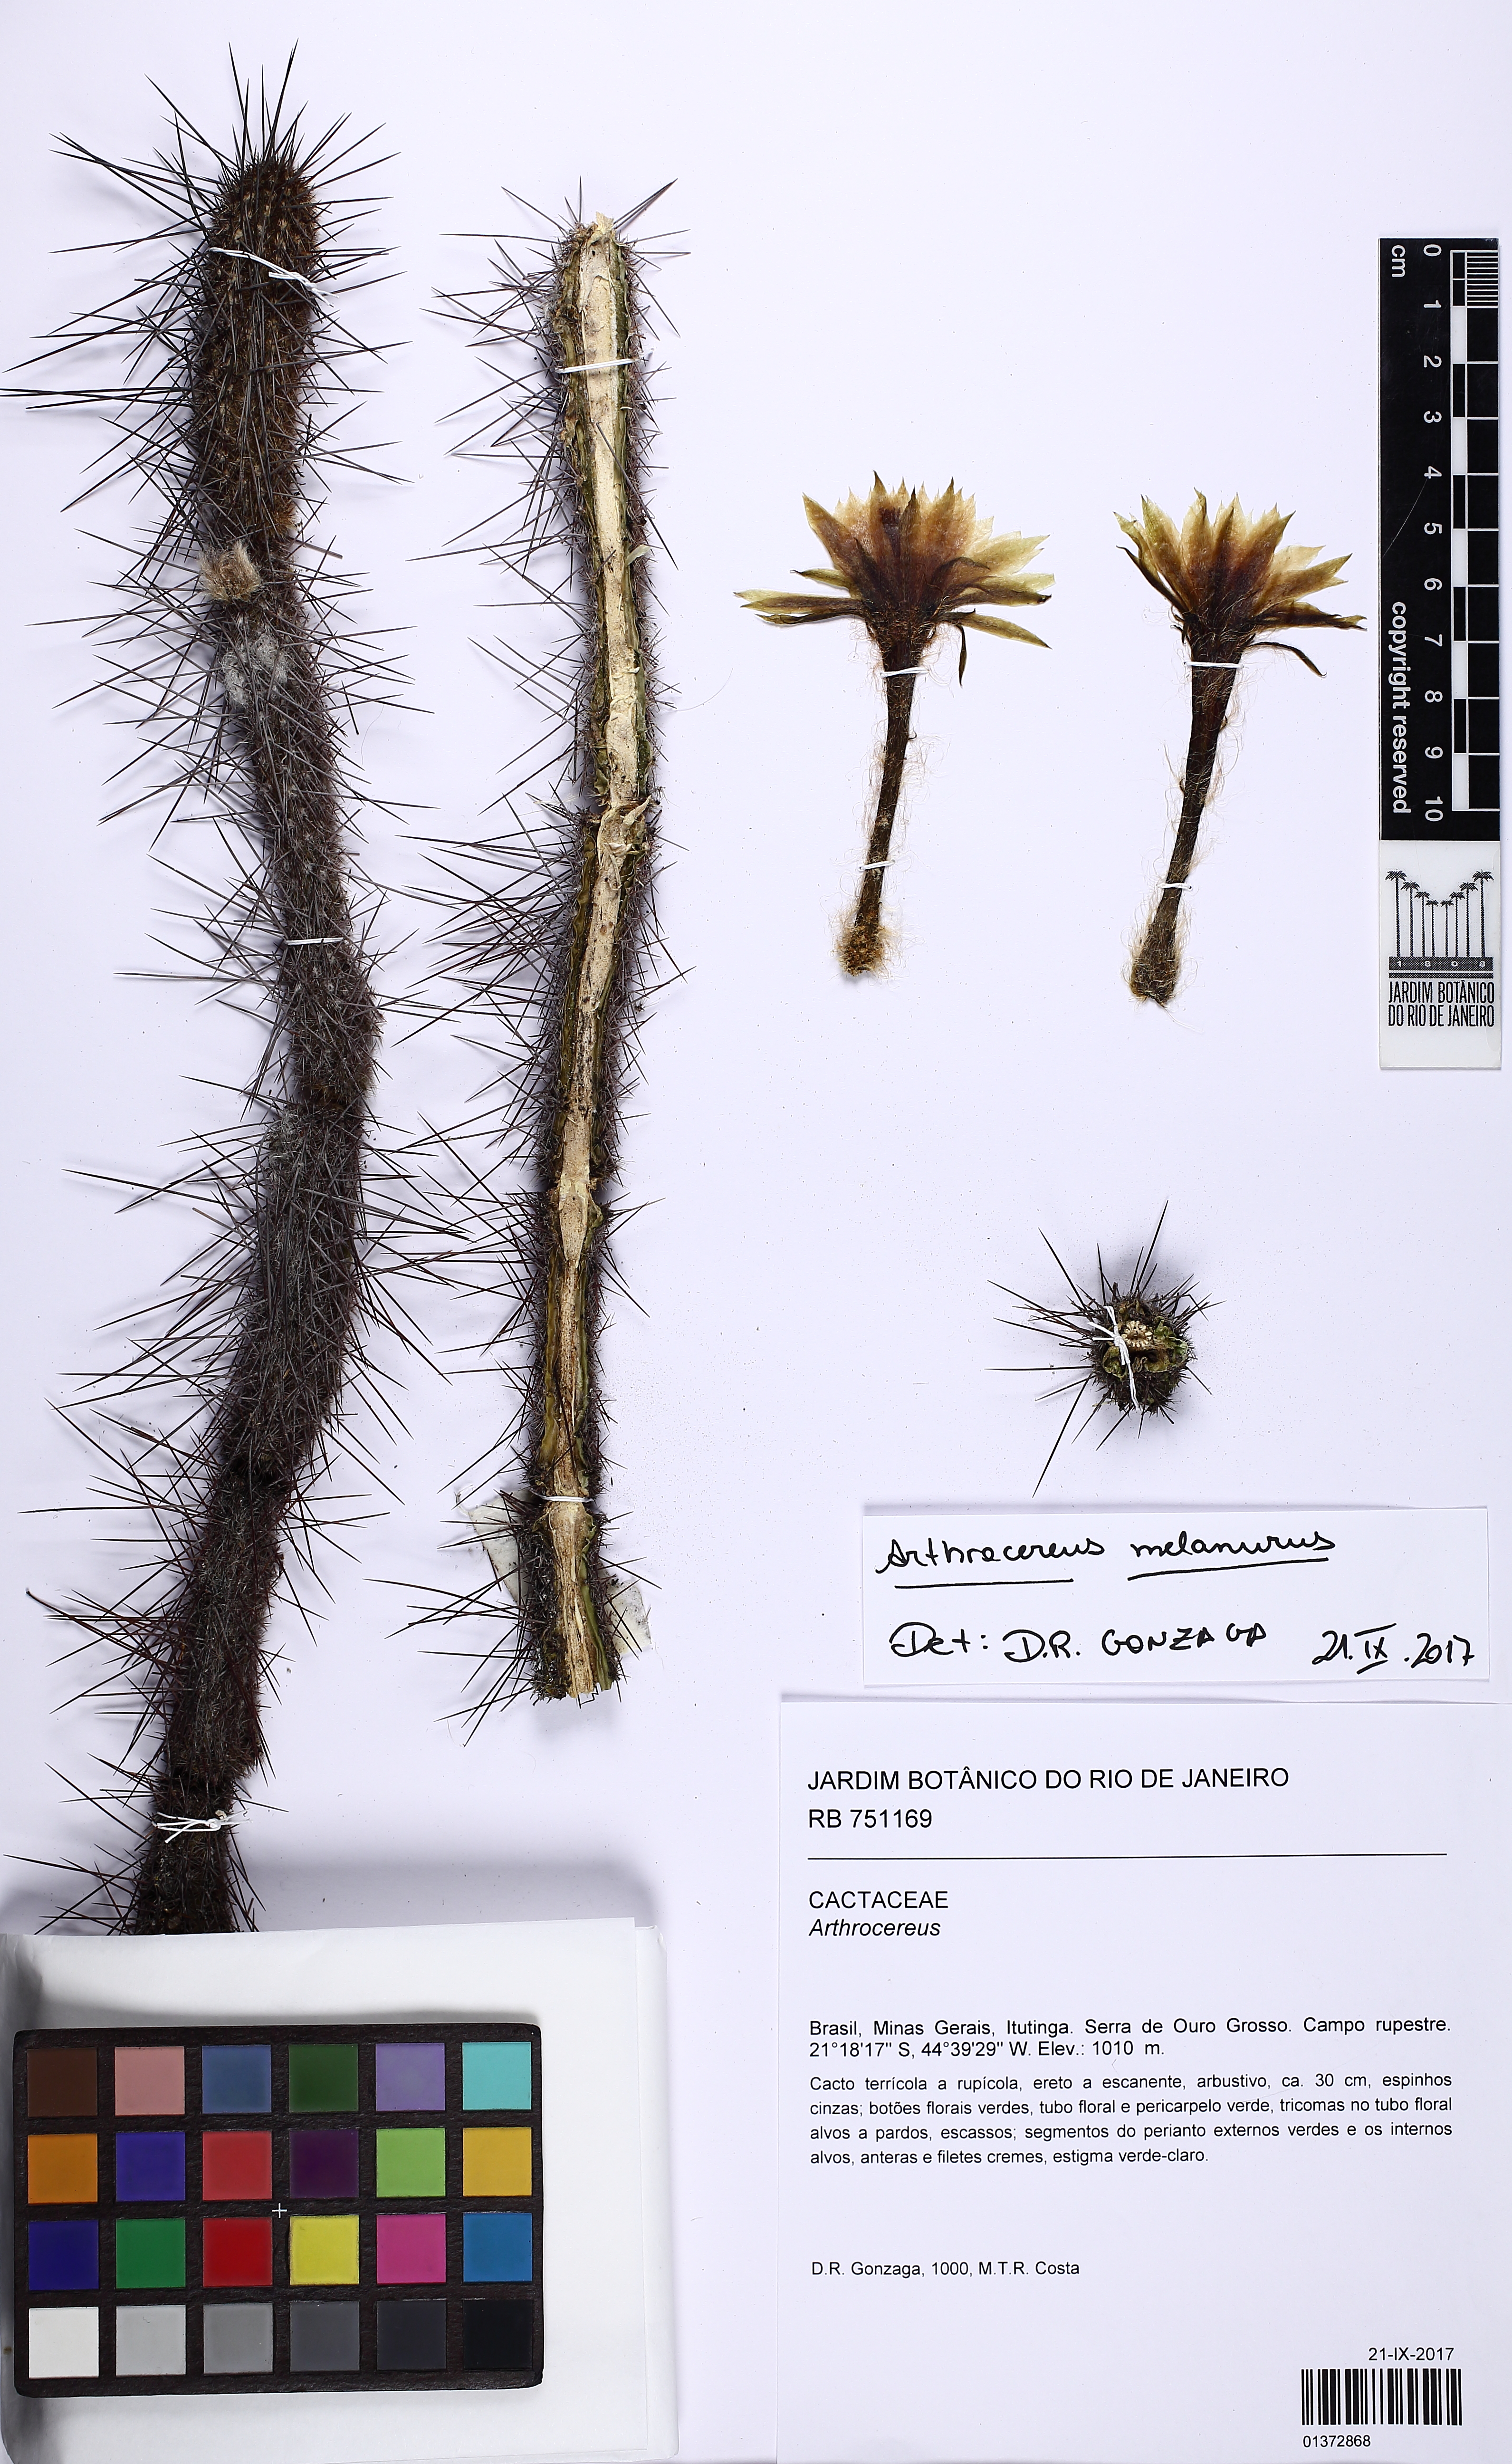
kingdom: Plantae
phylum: Tracheophyta
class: Magnoliopsida
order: Caryophyllales
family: Cactaceae
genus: Arthrocereus
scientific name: Arthrocereus melanurus
